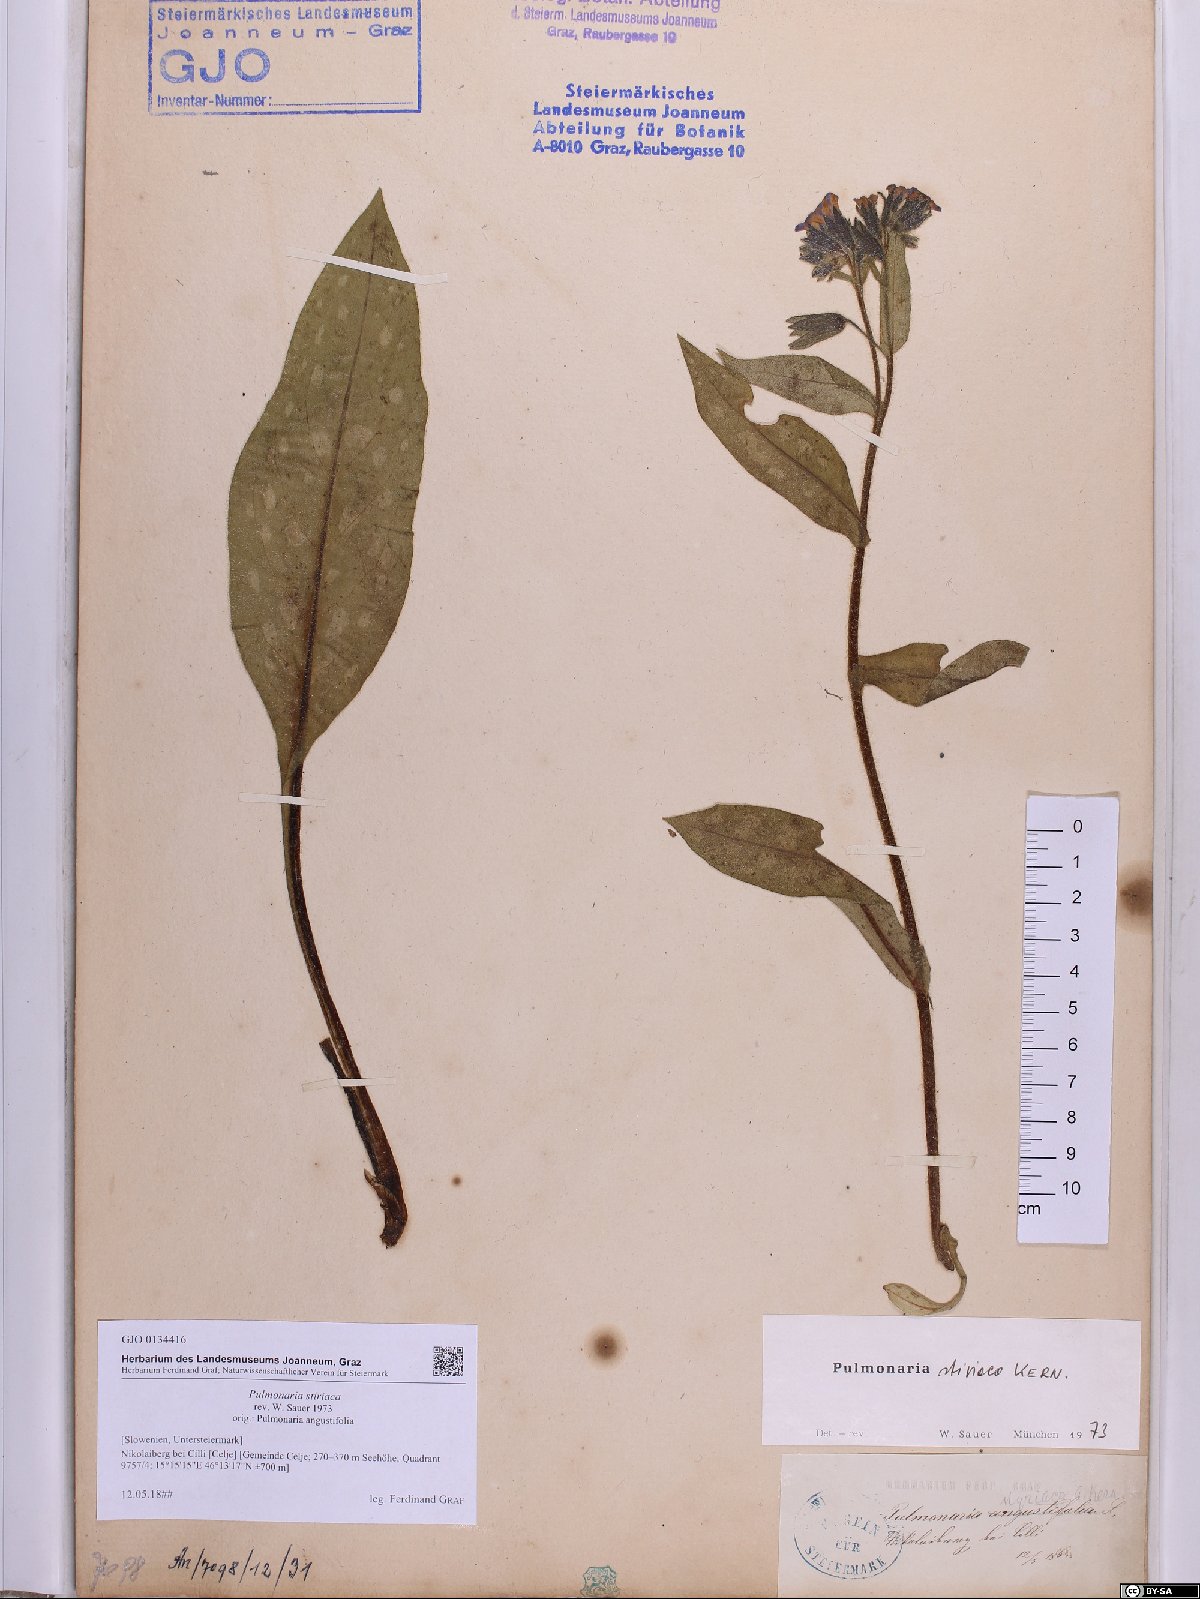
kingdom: Plantae
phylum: Tracheophyta
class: Magnoliopsida
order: Boraginales
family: Boraginaceae
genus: Pulmonaria
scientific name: Pulmonaria stiriaca
